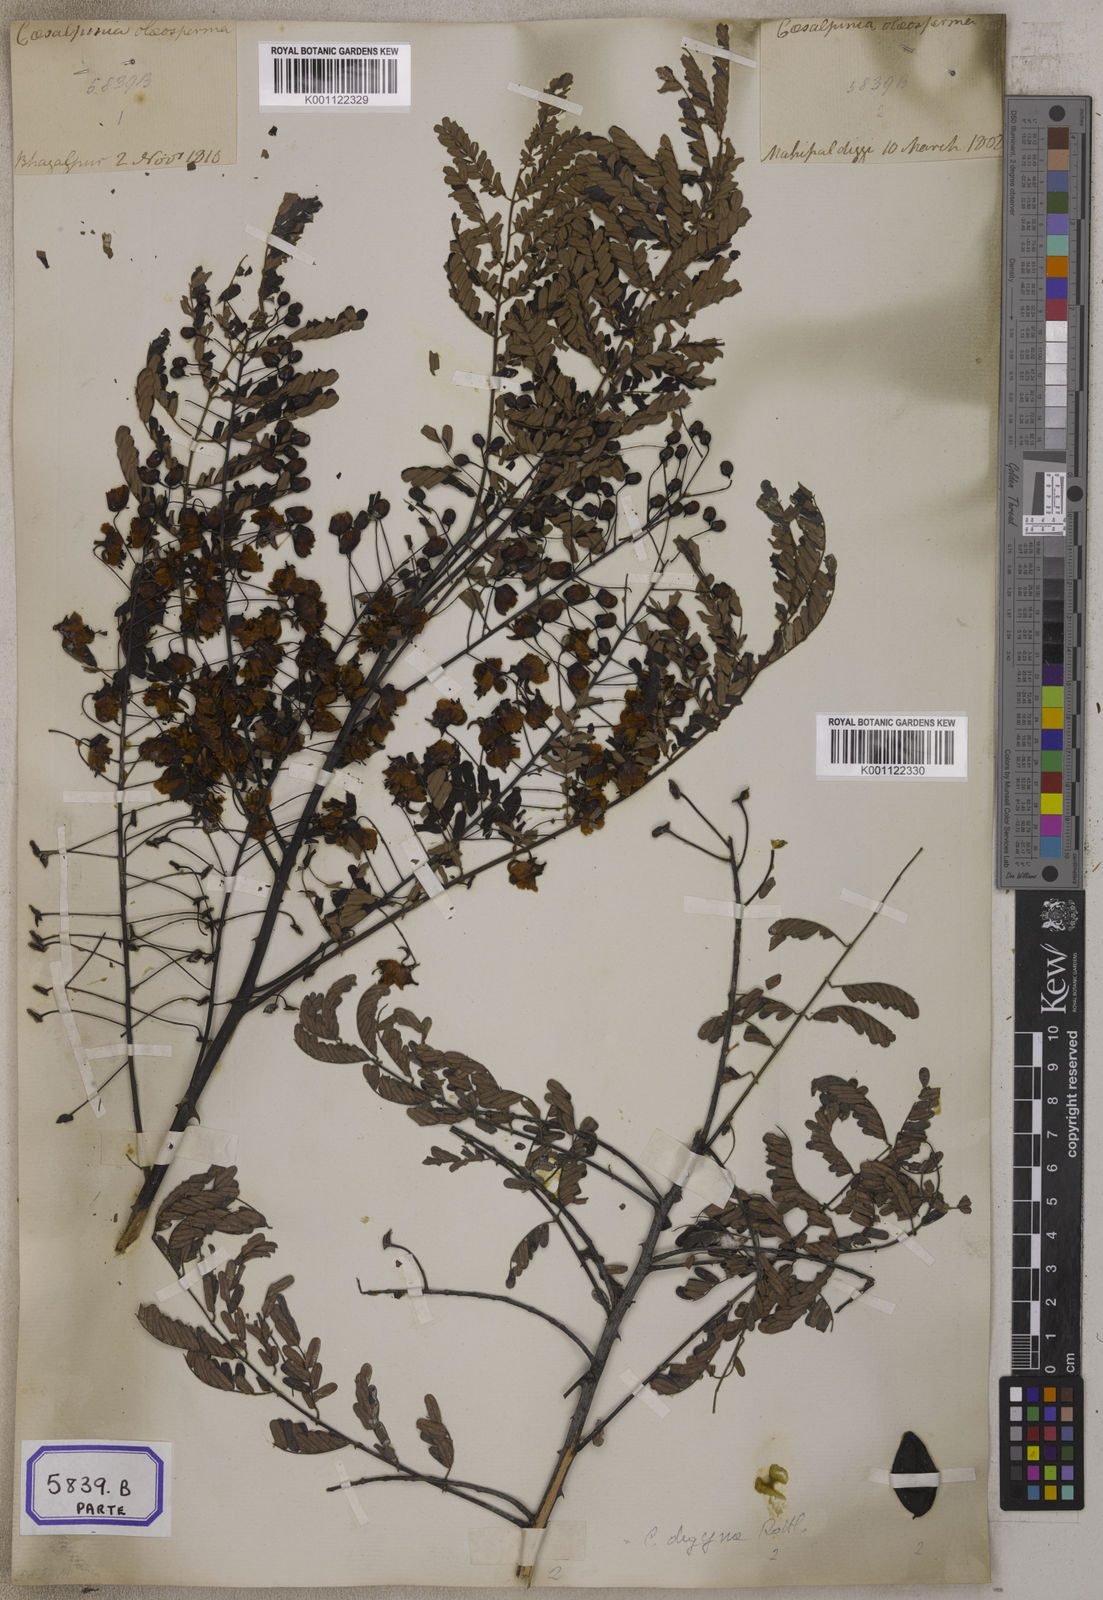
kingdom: Plantae
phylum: Tracheophyta
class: Magnoliopsida
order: Fabales
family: Fabaceae
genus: Moullava
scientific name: Moullava digyna
